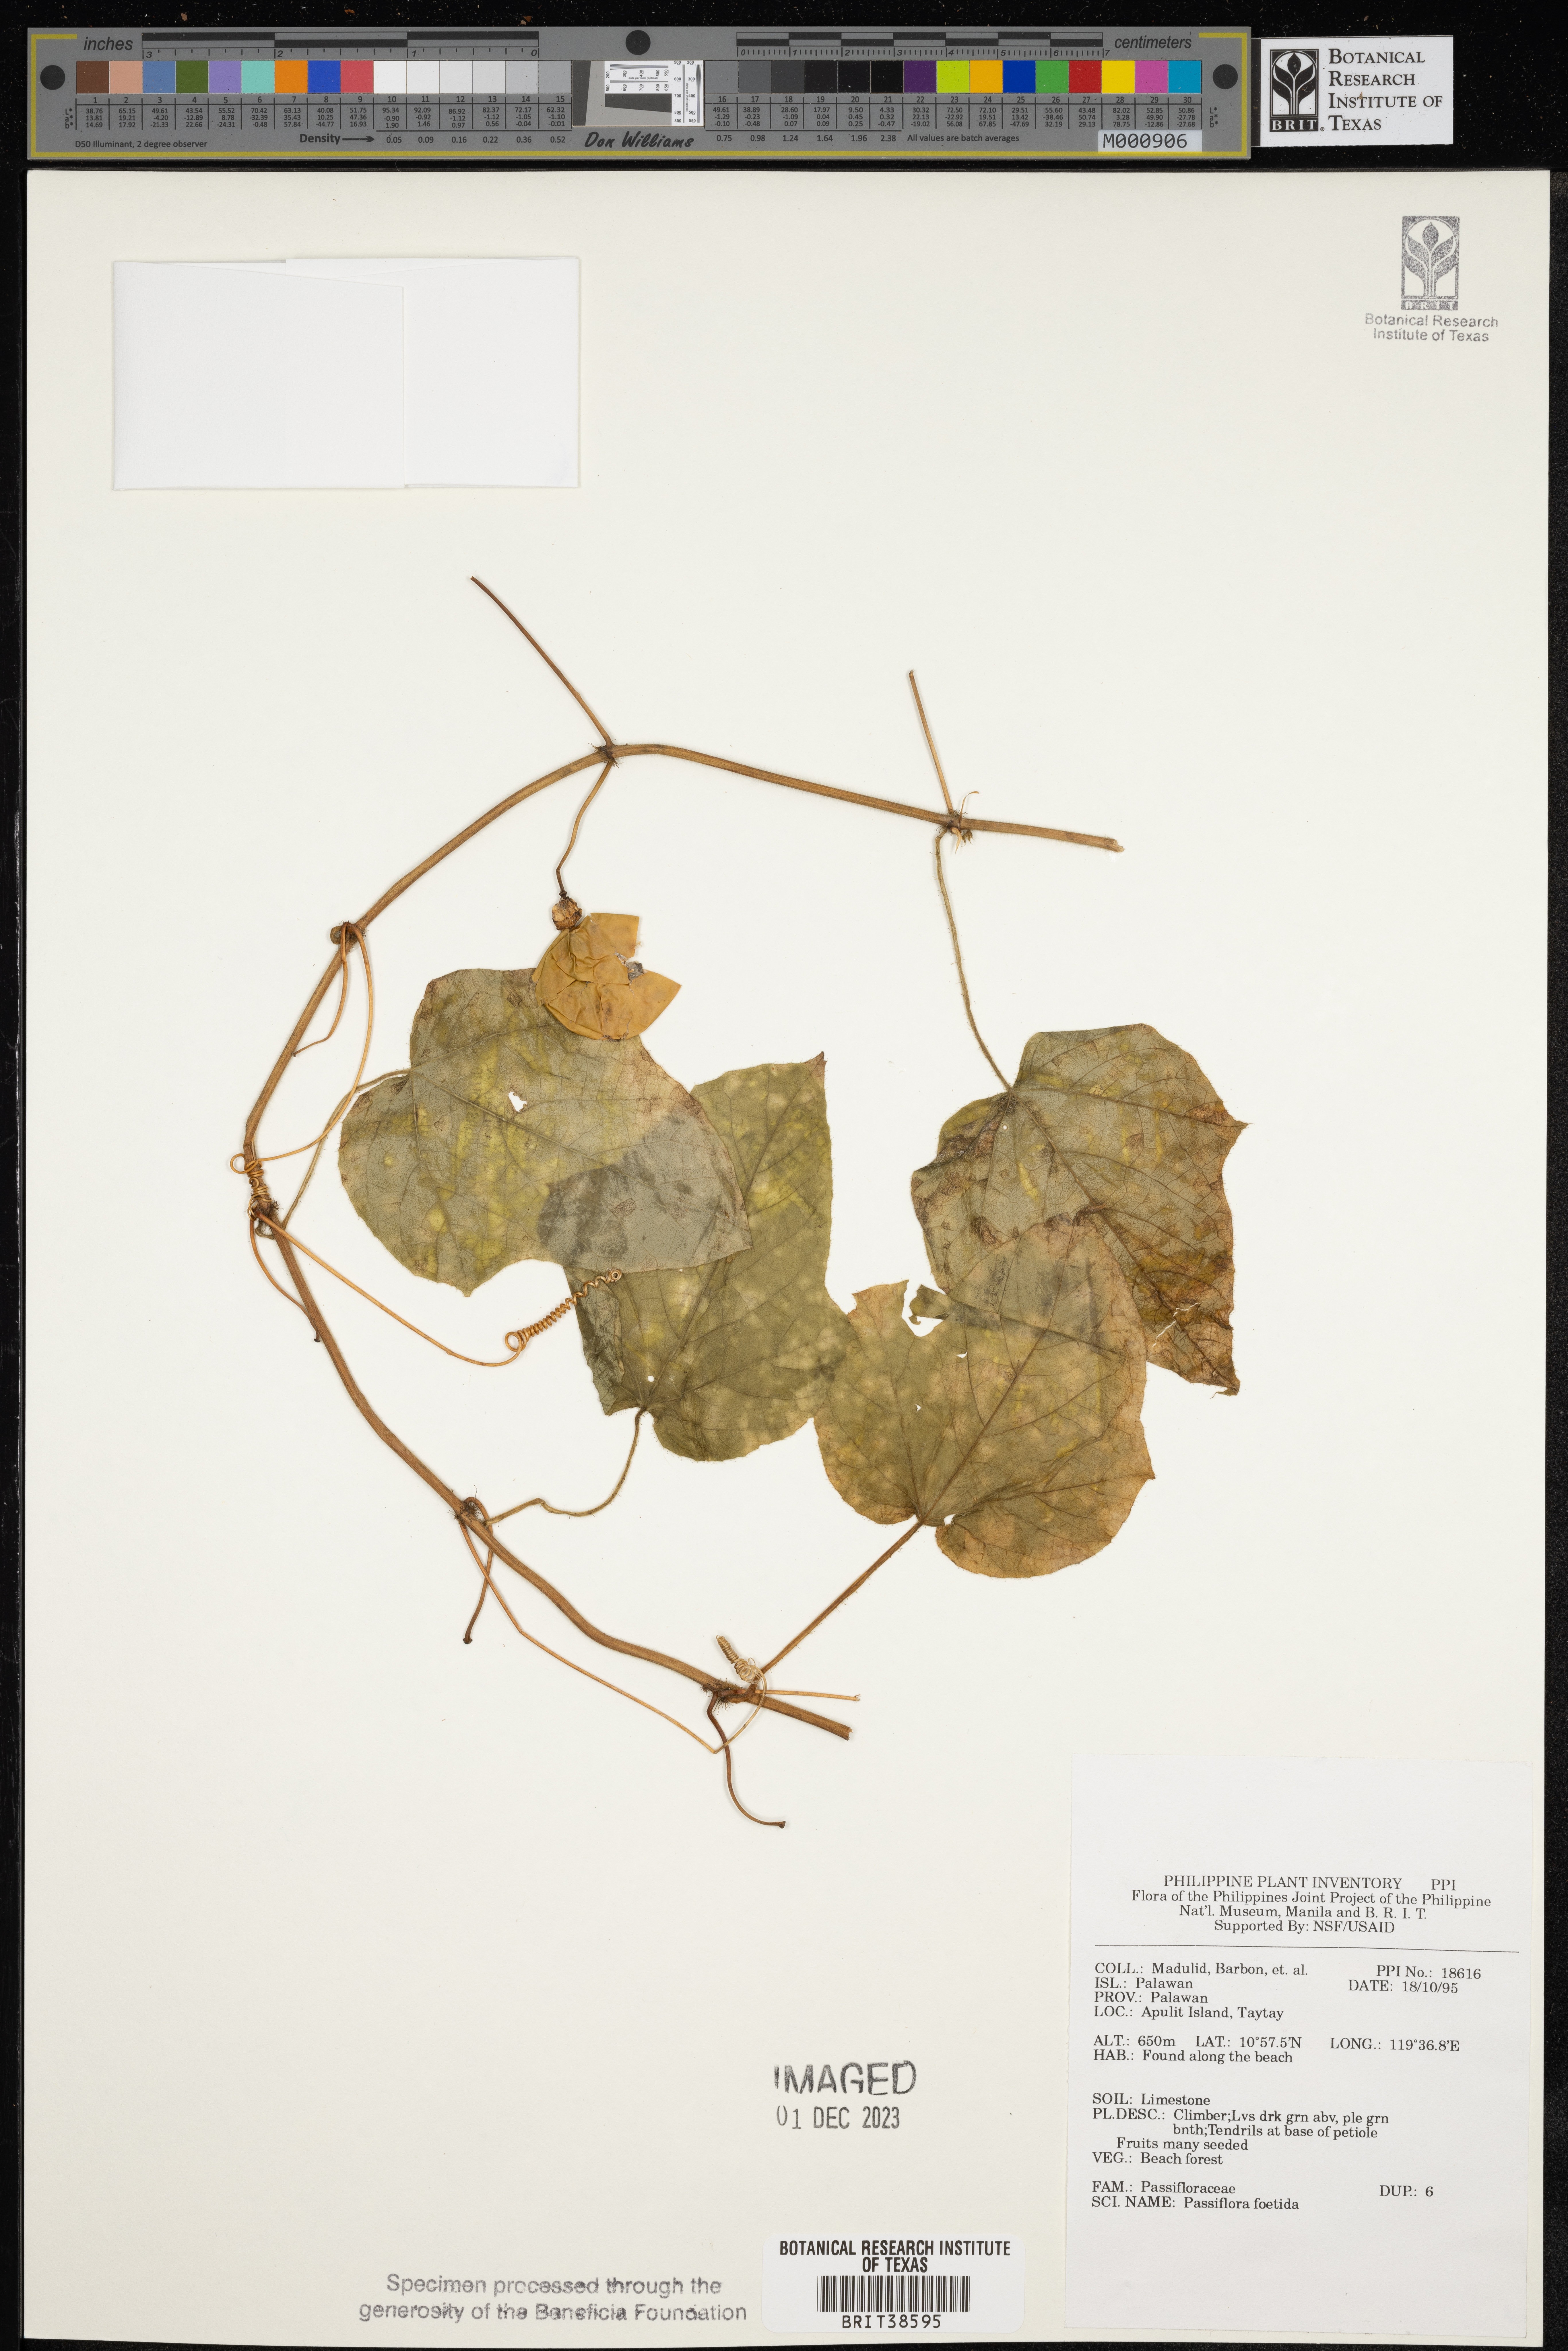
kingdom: Plantae
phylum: Tracheophyta
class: Magnoliopsida
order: Malpighiales
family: Passifloraceae
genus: Passiflora
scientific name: Passiflora foetida
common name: Fetid passionflower
